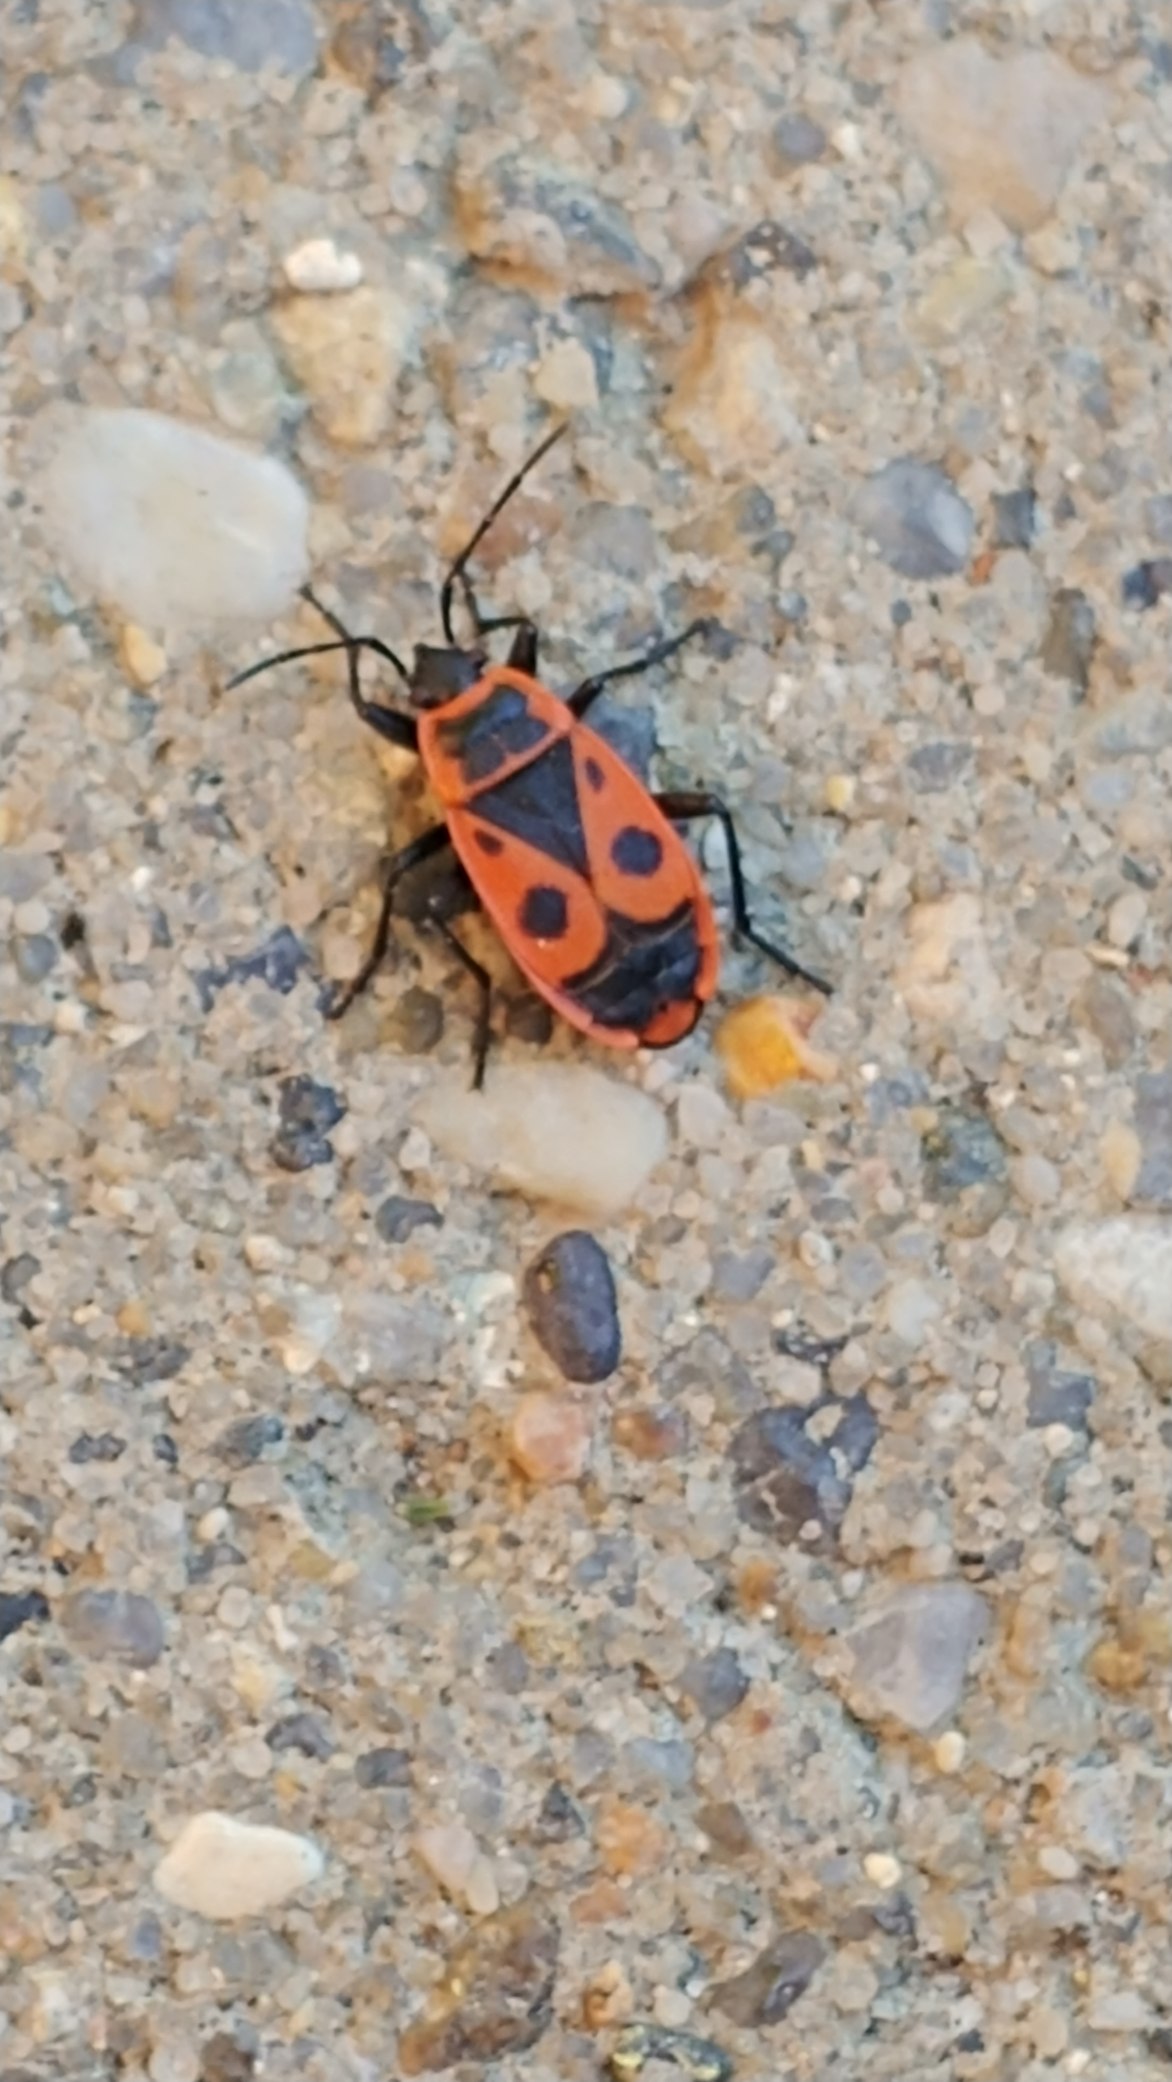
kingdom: Animalia
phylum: Arthropoda
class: Insecta
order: Hemiptera
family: Pyrrhocoridae
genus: Pyrrhocoris
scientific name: Pyrrhocoris apterus
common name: Ildtæge
